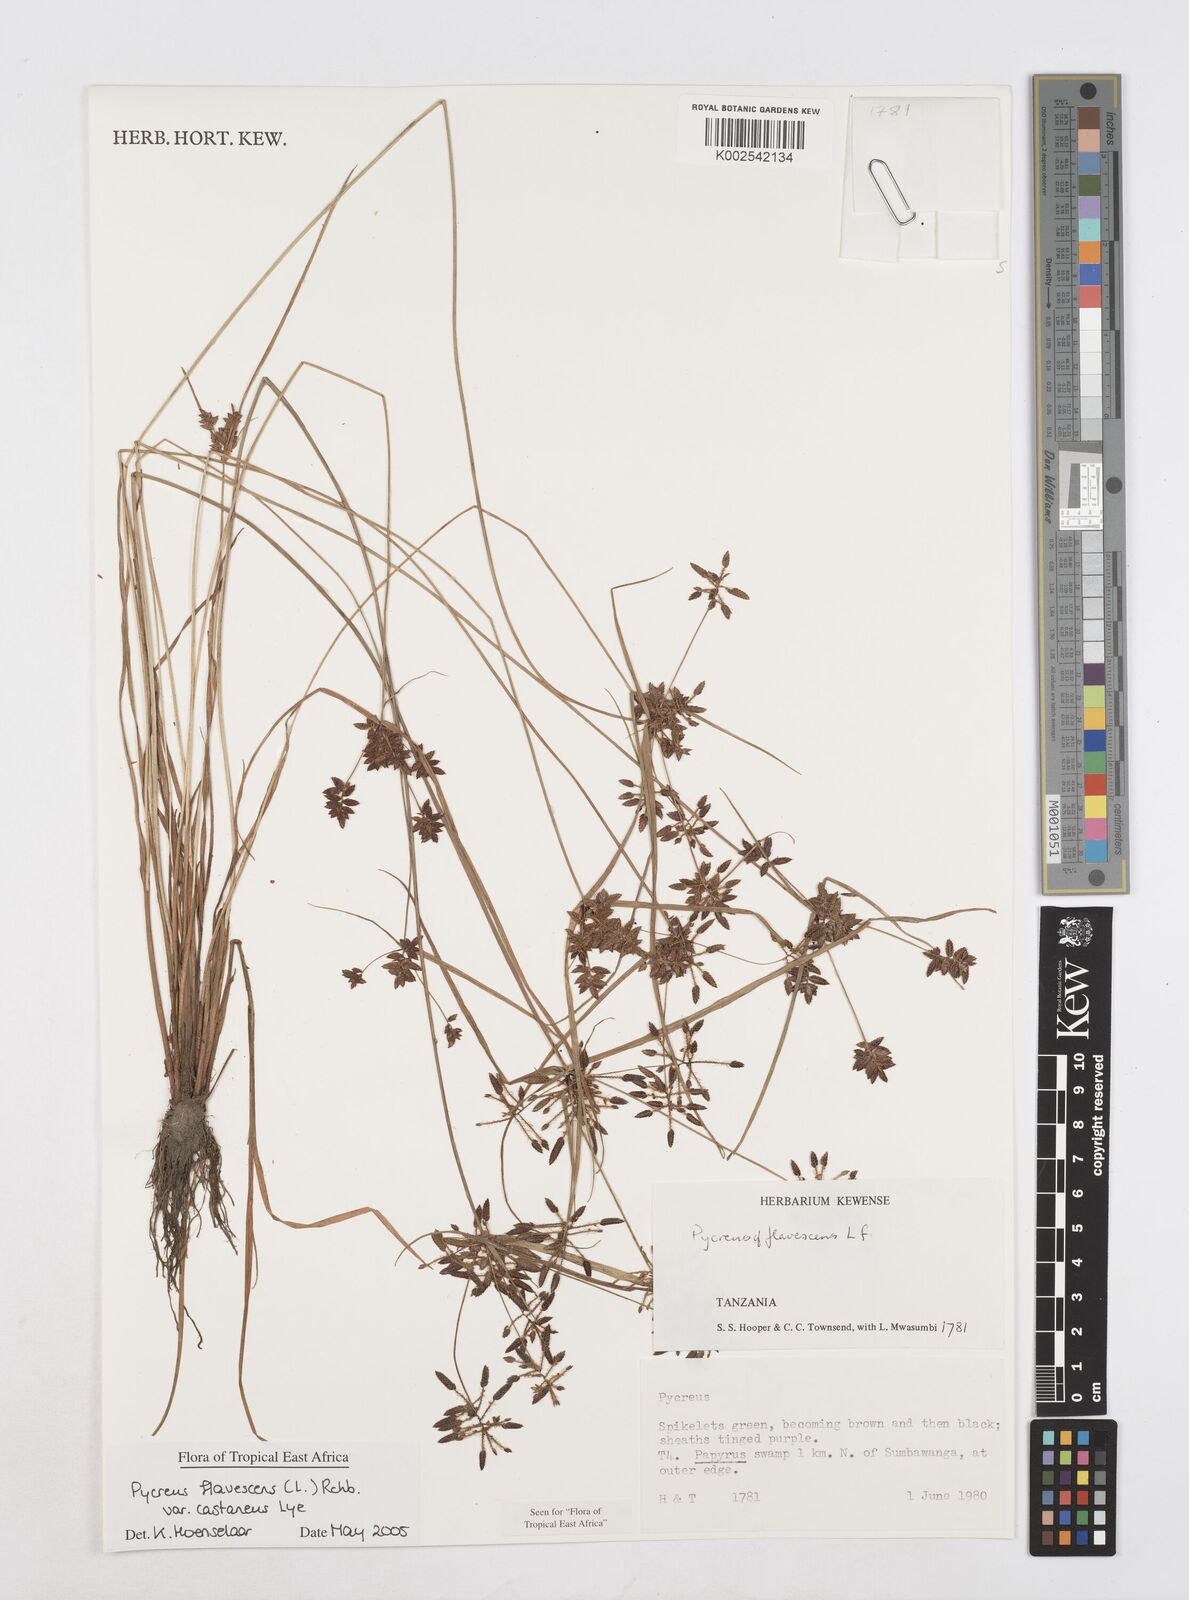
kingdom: Plantae
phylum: Tracheophyta
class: Liliopsida
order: Poales
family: Cyperaceae
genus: Cyperus
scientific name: Cyperus flavescens
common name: Yellow galingale
